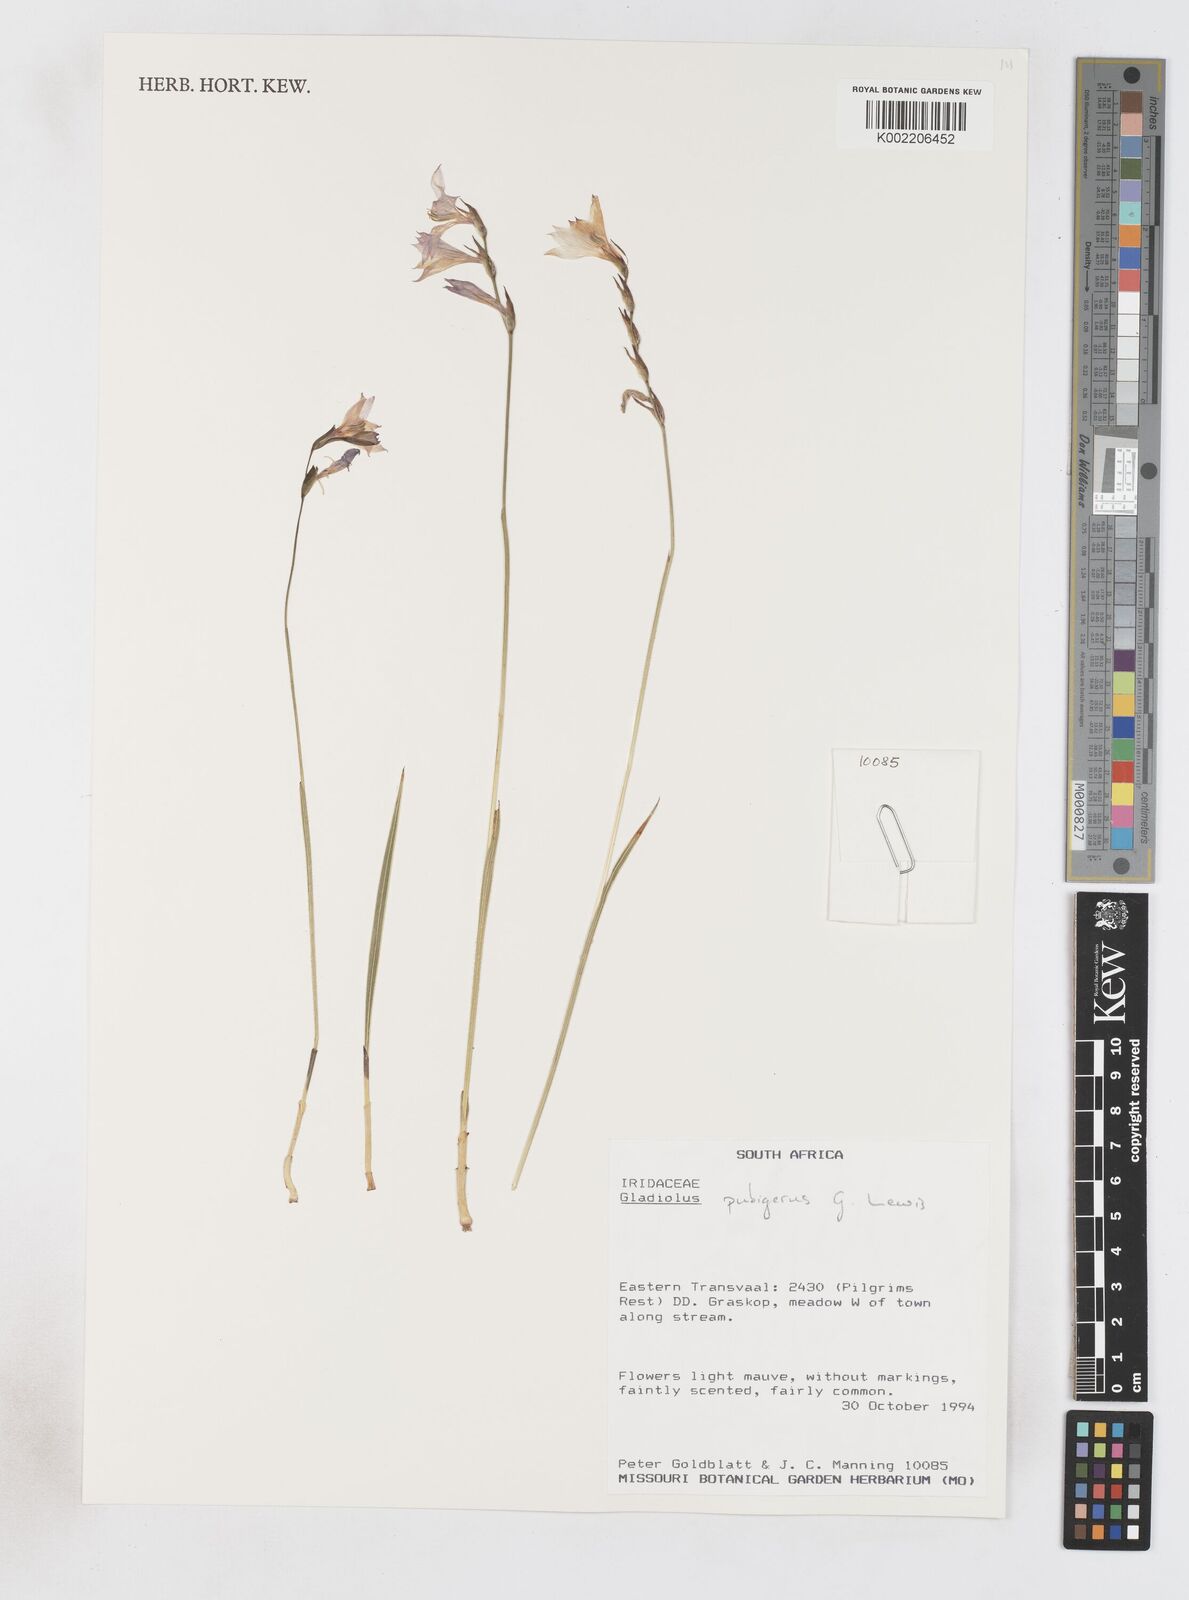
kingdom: Plantae
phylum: Tracheophyta
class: Liliopsida
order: Asparagales
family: Iridaceae
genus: Gladiolus
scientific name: Gladiolus parvulus
